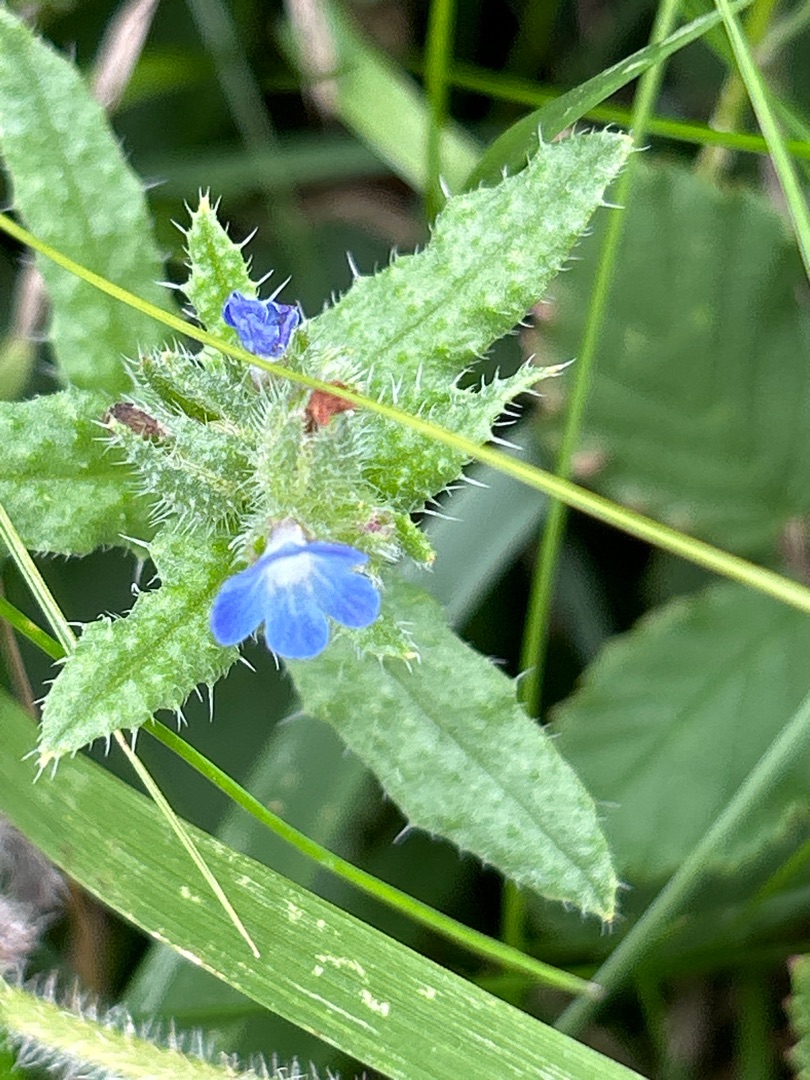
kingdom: Plantae
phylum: Tracheophyta
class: Magnoliopsida
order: Boraginales
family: Boraginaceae
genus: Lycopsis
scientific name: Lycopsis arvensis
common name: Krumhals
